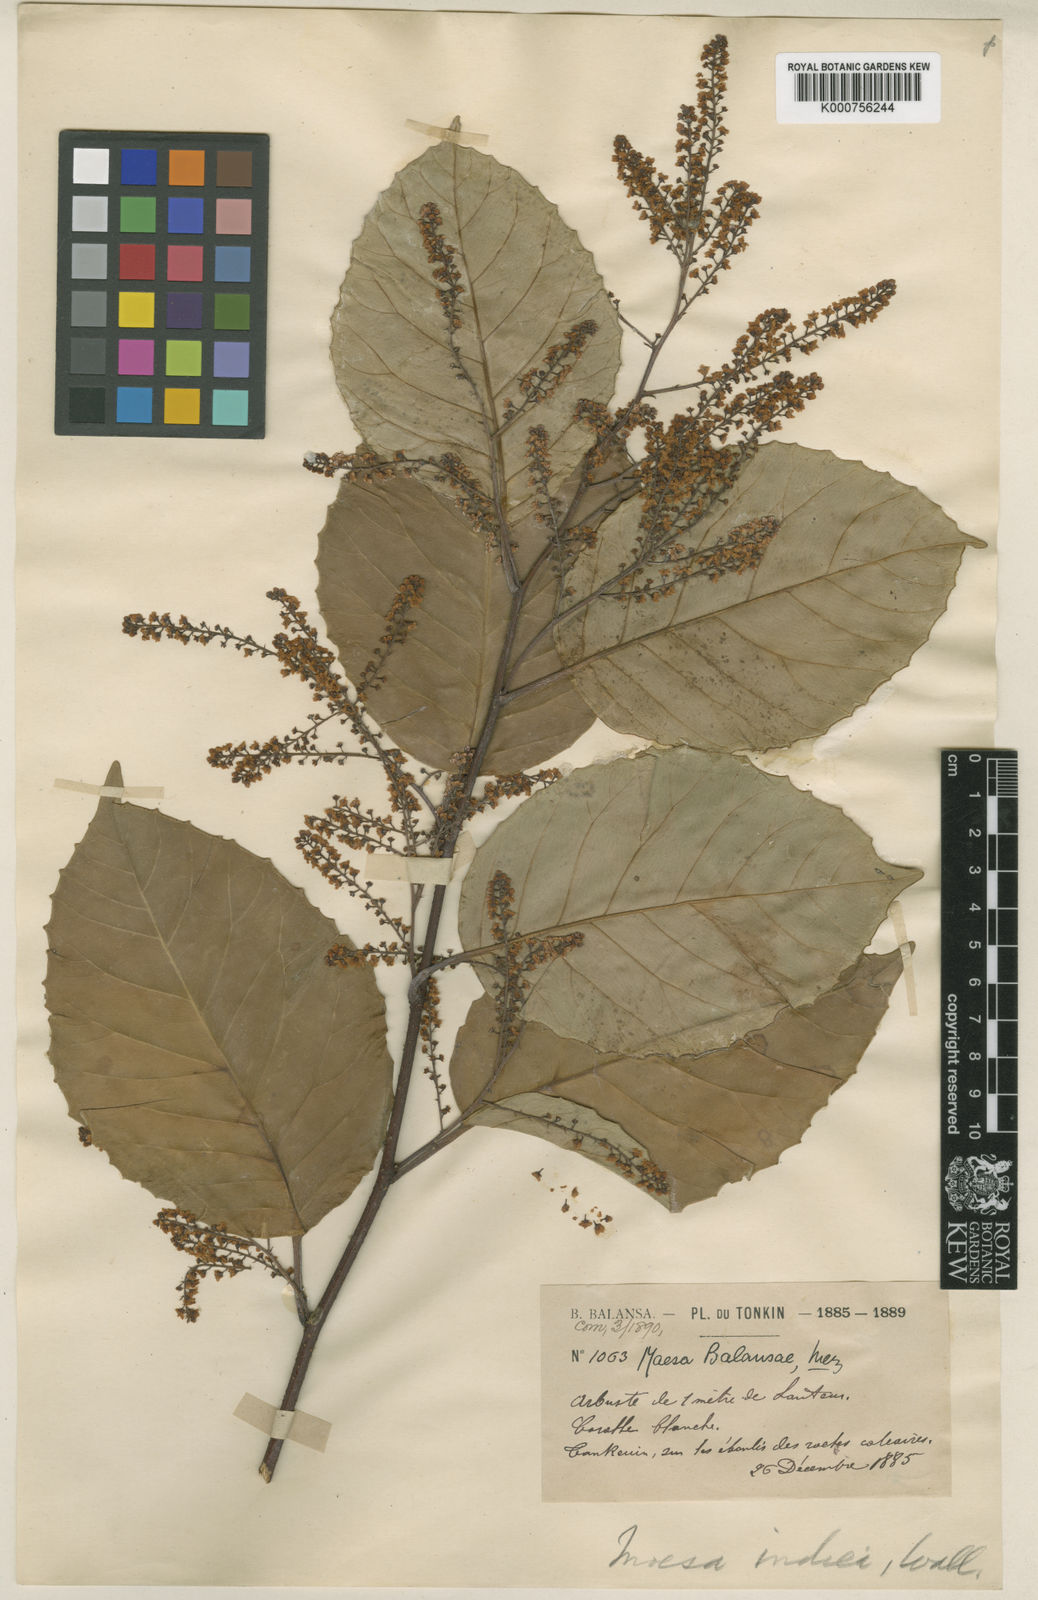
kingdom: Plantae
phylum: Tracheophyta
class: Magnoliopsida
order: Ericales
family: Primulaceae
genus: Maesa
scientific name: Maesa balansae
